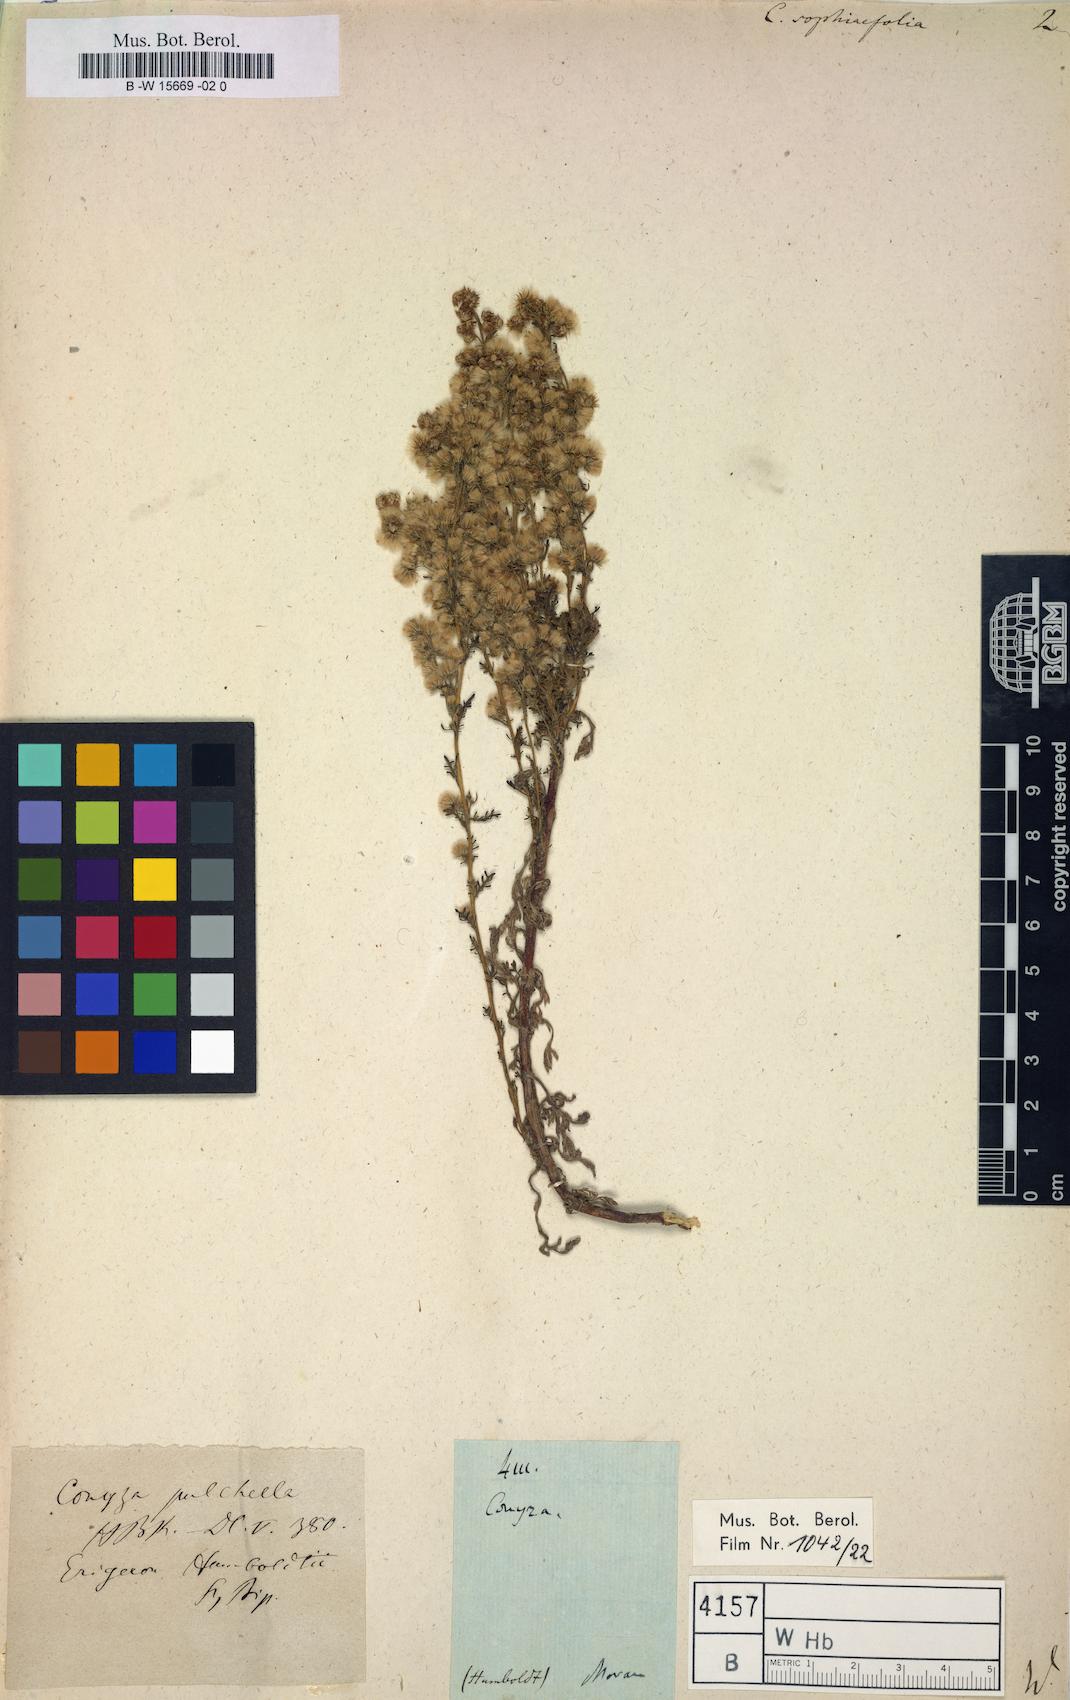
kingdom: Plantae
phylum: Tracheophyta
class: Magnoliopsida
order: Asterales
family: Asteraceae
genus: Laennecia
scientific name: Laennecia sophiifolia
